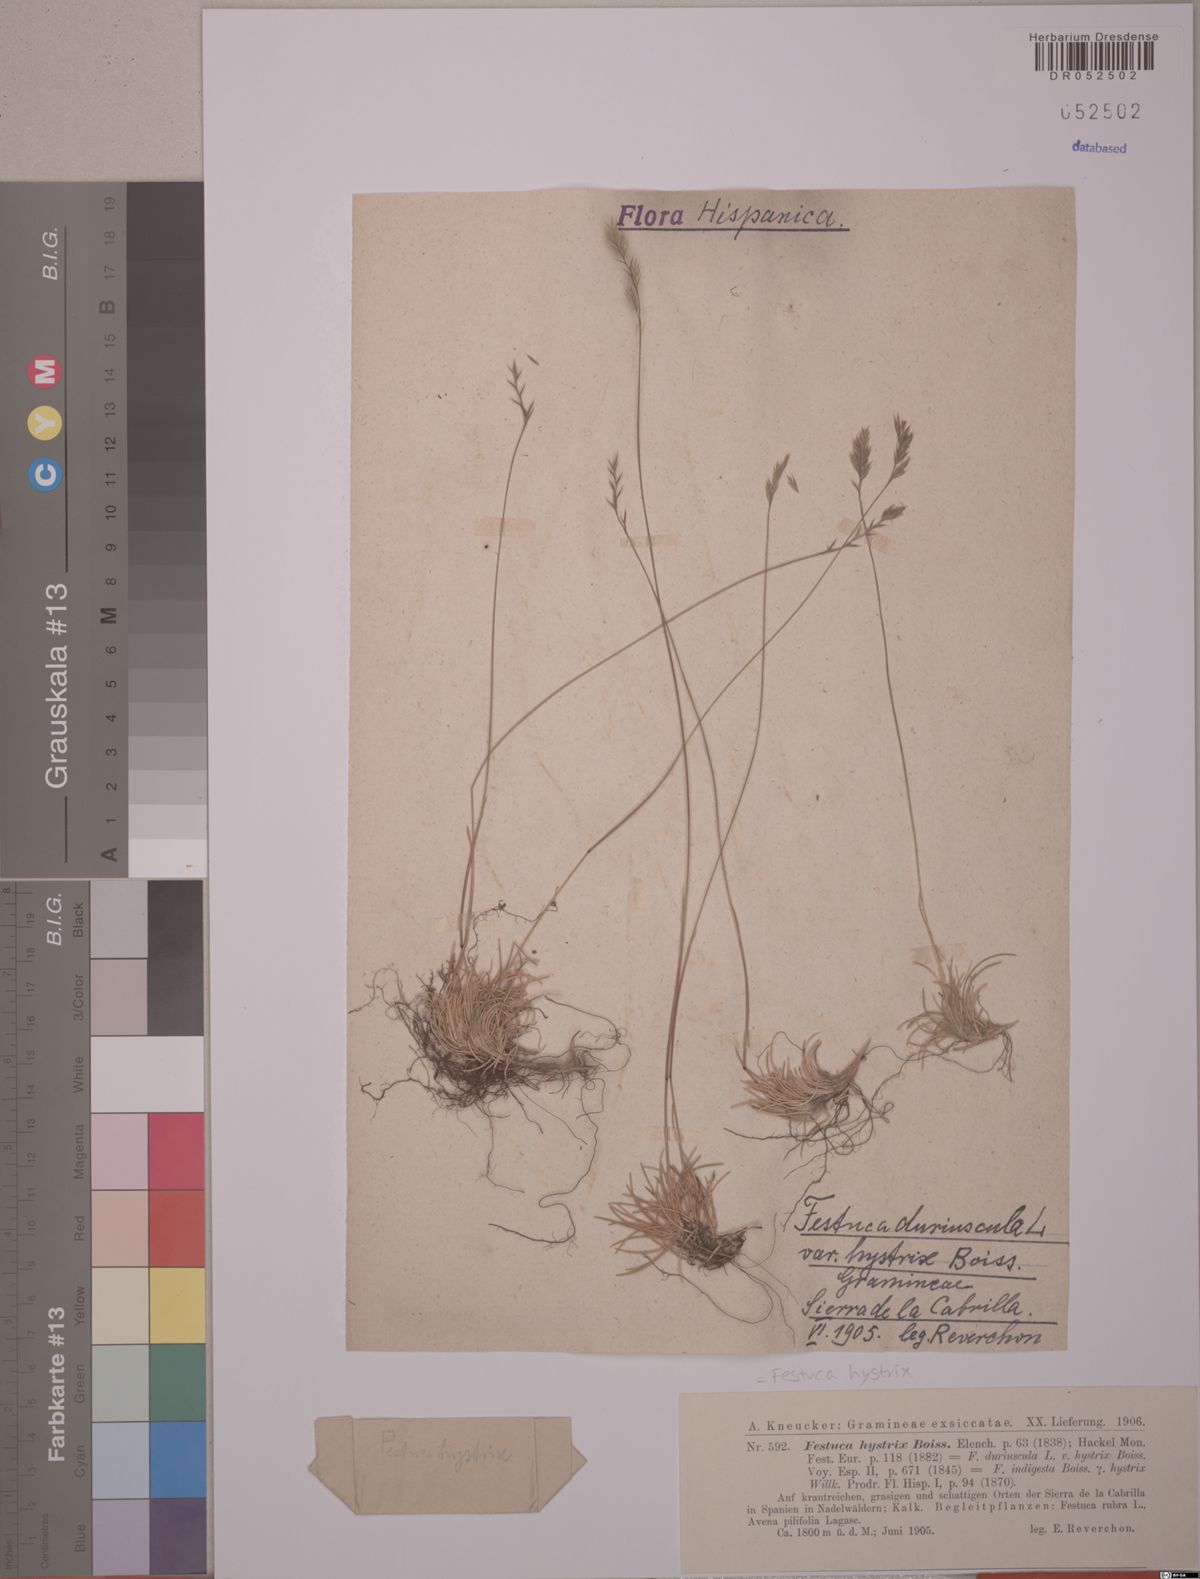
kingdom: Plantae
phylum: Tracheophyta
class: Liliopsida
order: Poales
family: Poaceae
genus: Festuca
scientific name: Festuca hystrix
